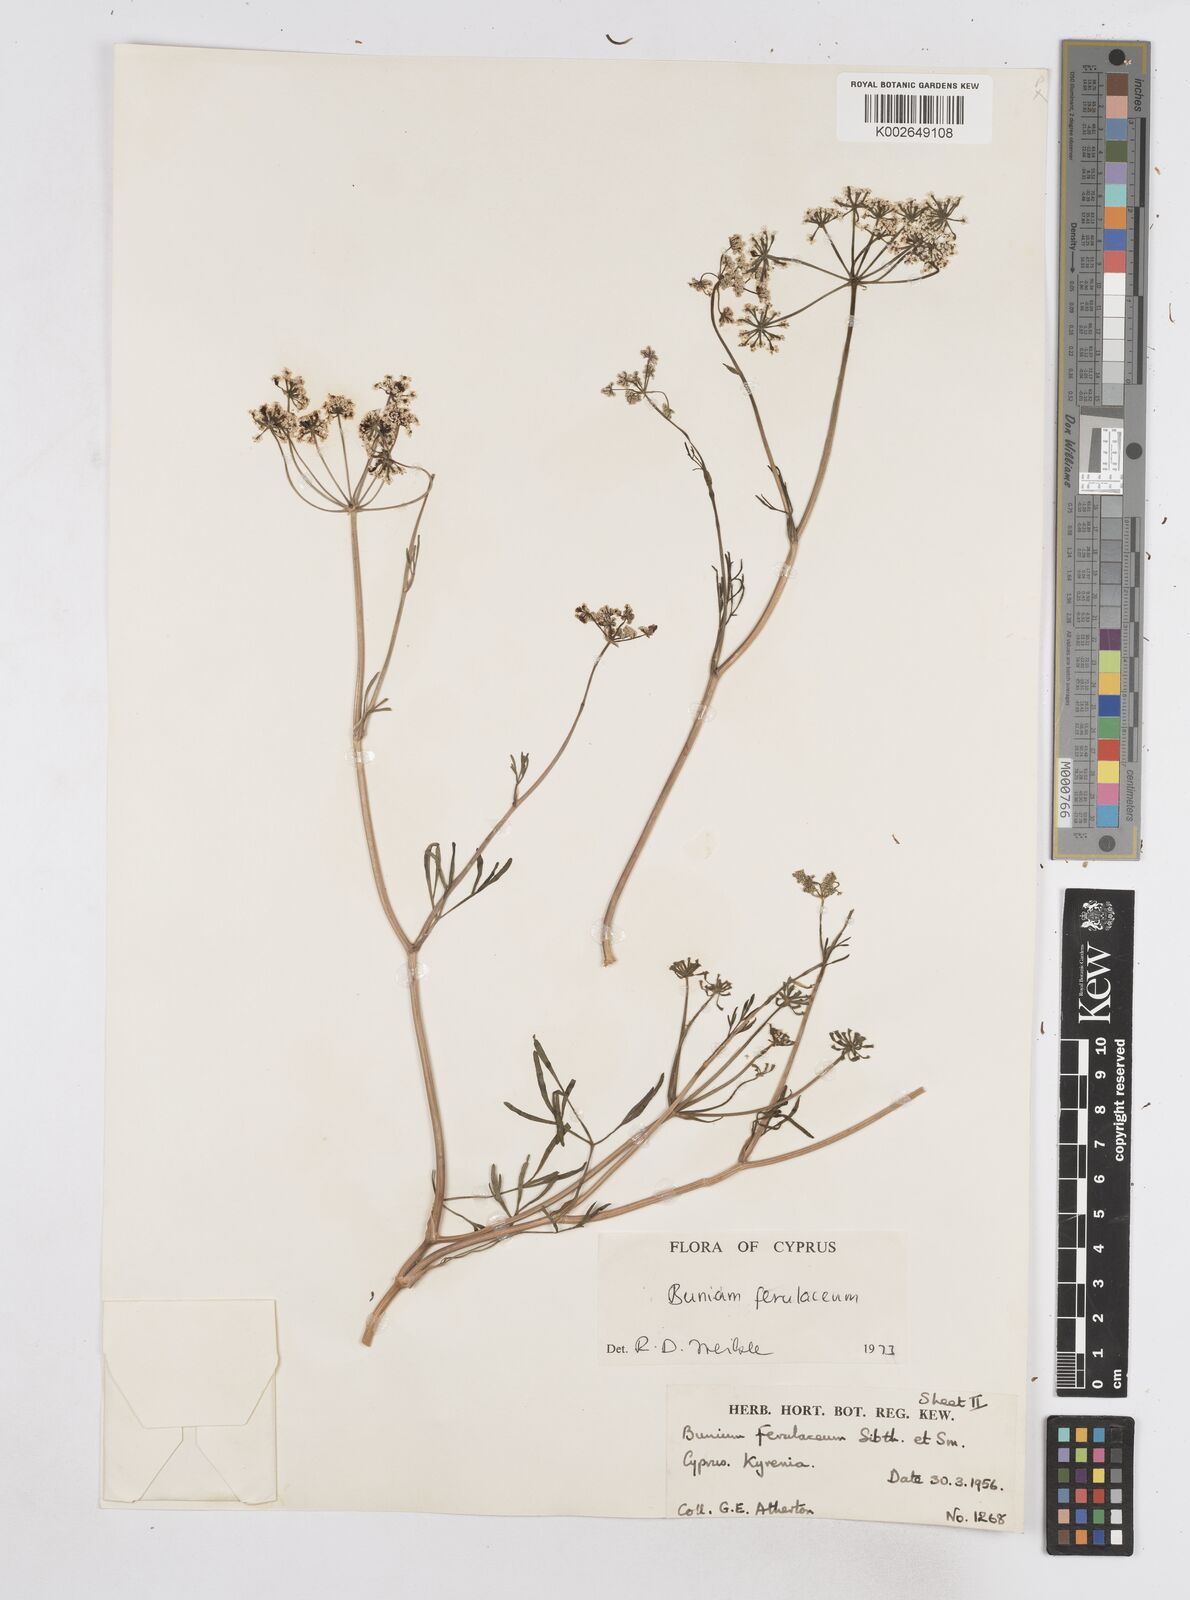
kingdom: Plantae
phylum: Tracheophyta
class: Magnoliopsida
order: Apiales
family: Apiaceae
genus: Bunium
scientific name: Bunium ferulaceum
